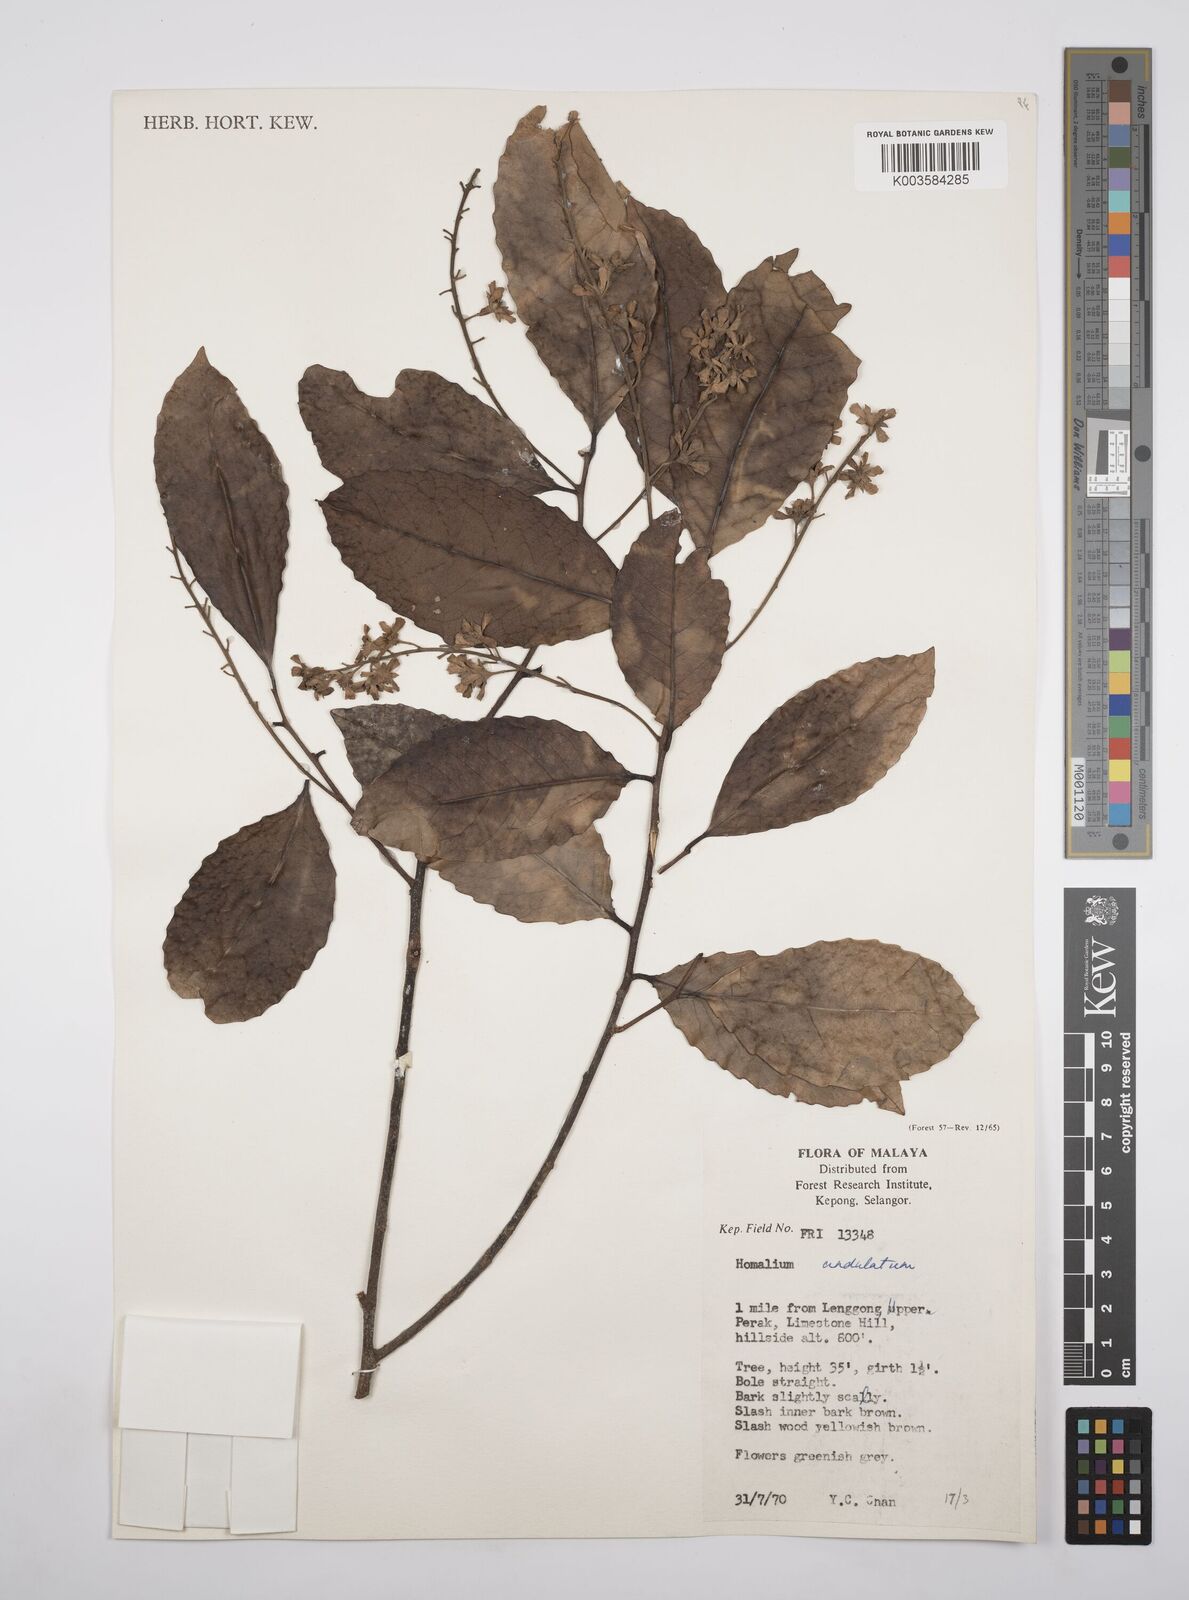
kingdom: Plantae
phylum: Tracheophyta
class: Magnoliopsida
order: Malpighiales
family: Salicaceae
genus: Homalium
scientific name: Homalium undulatum
